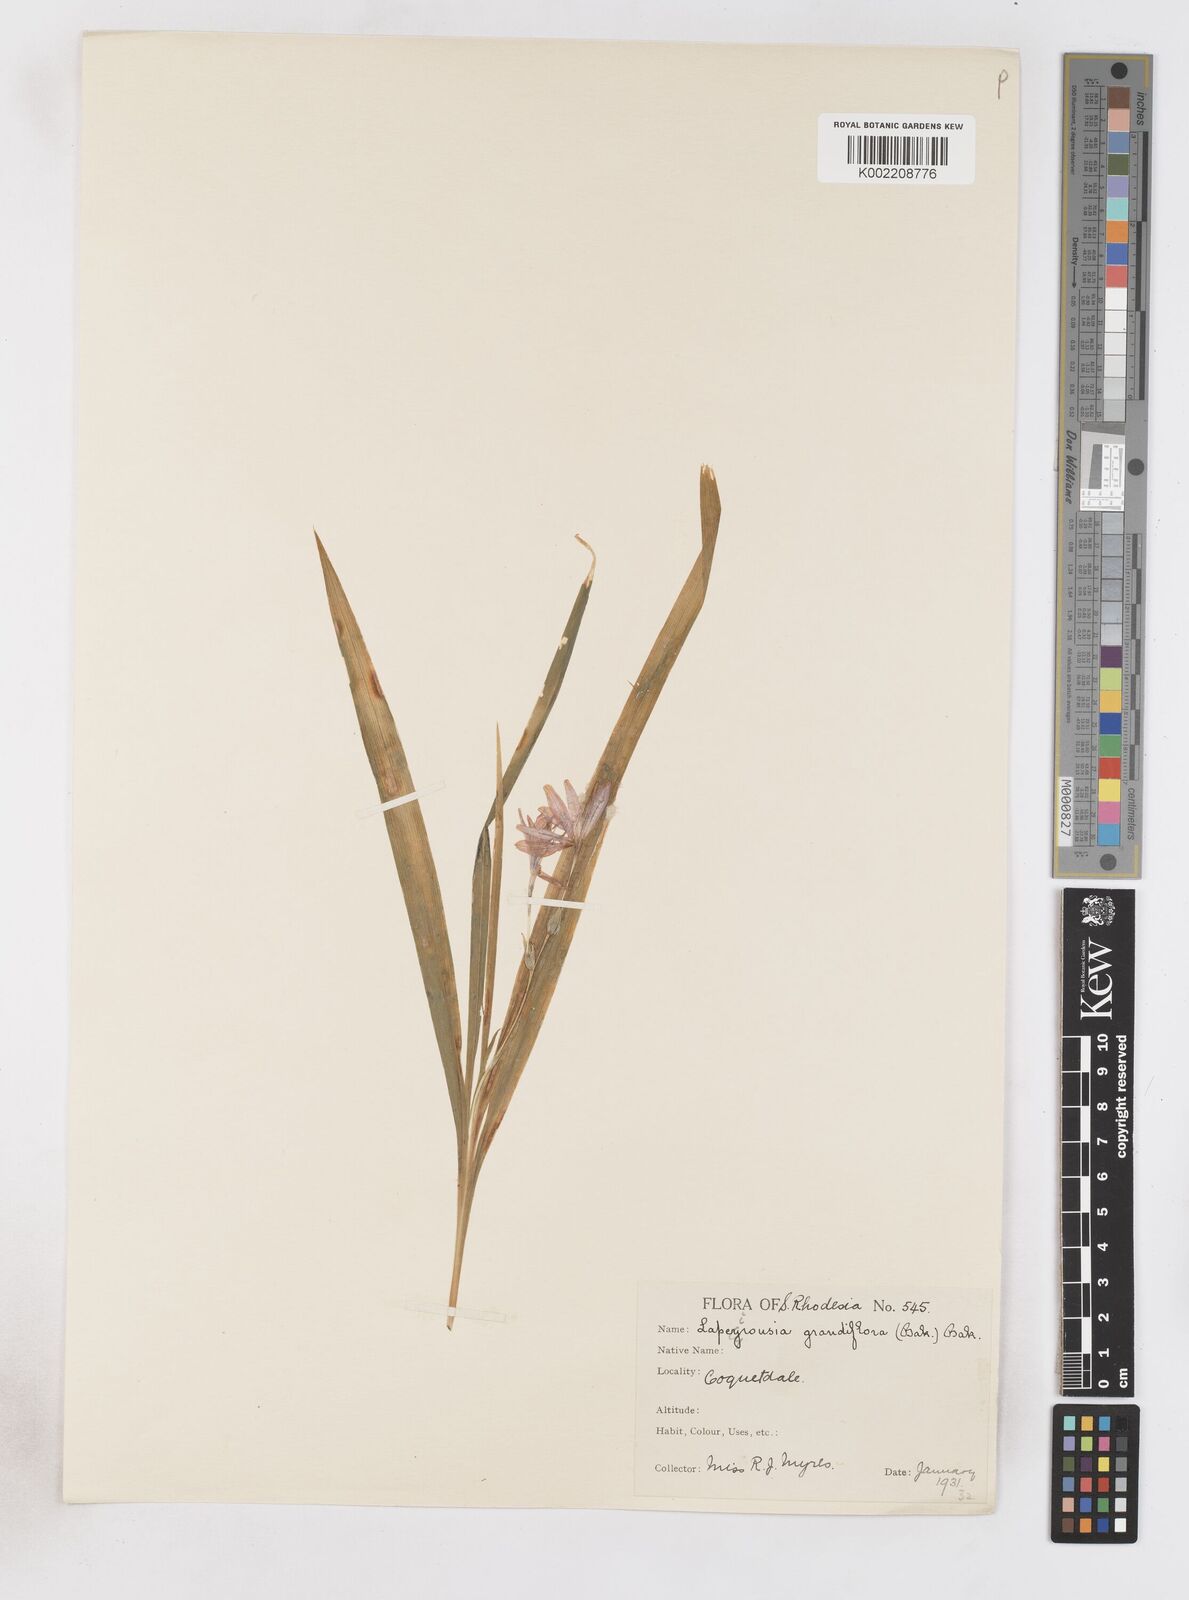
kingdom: Plantae
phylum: Tracheophyta
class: Liliopsida
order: Asparagales
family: Iridaceae
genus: Freesia
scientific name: Freesia grandiflora
